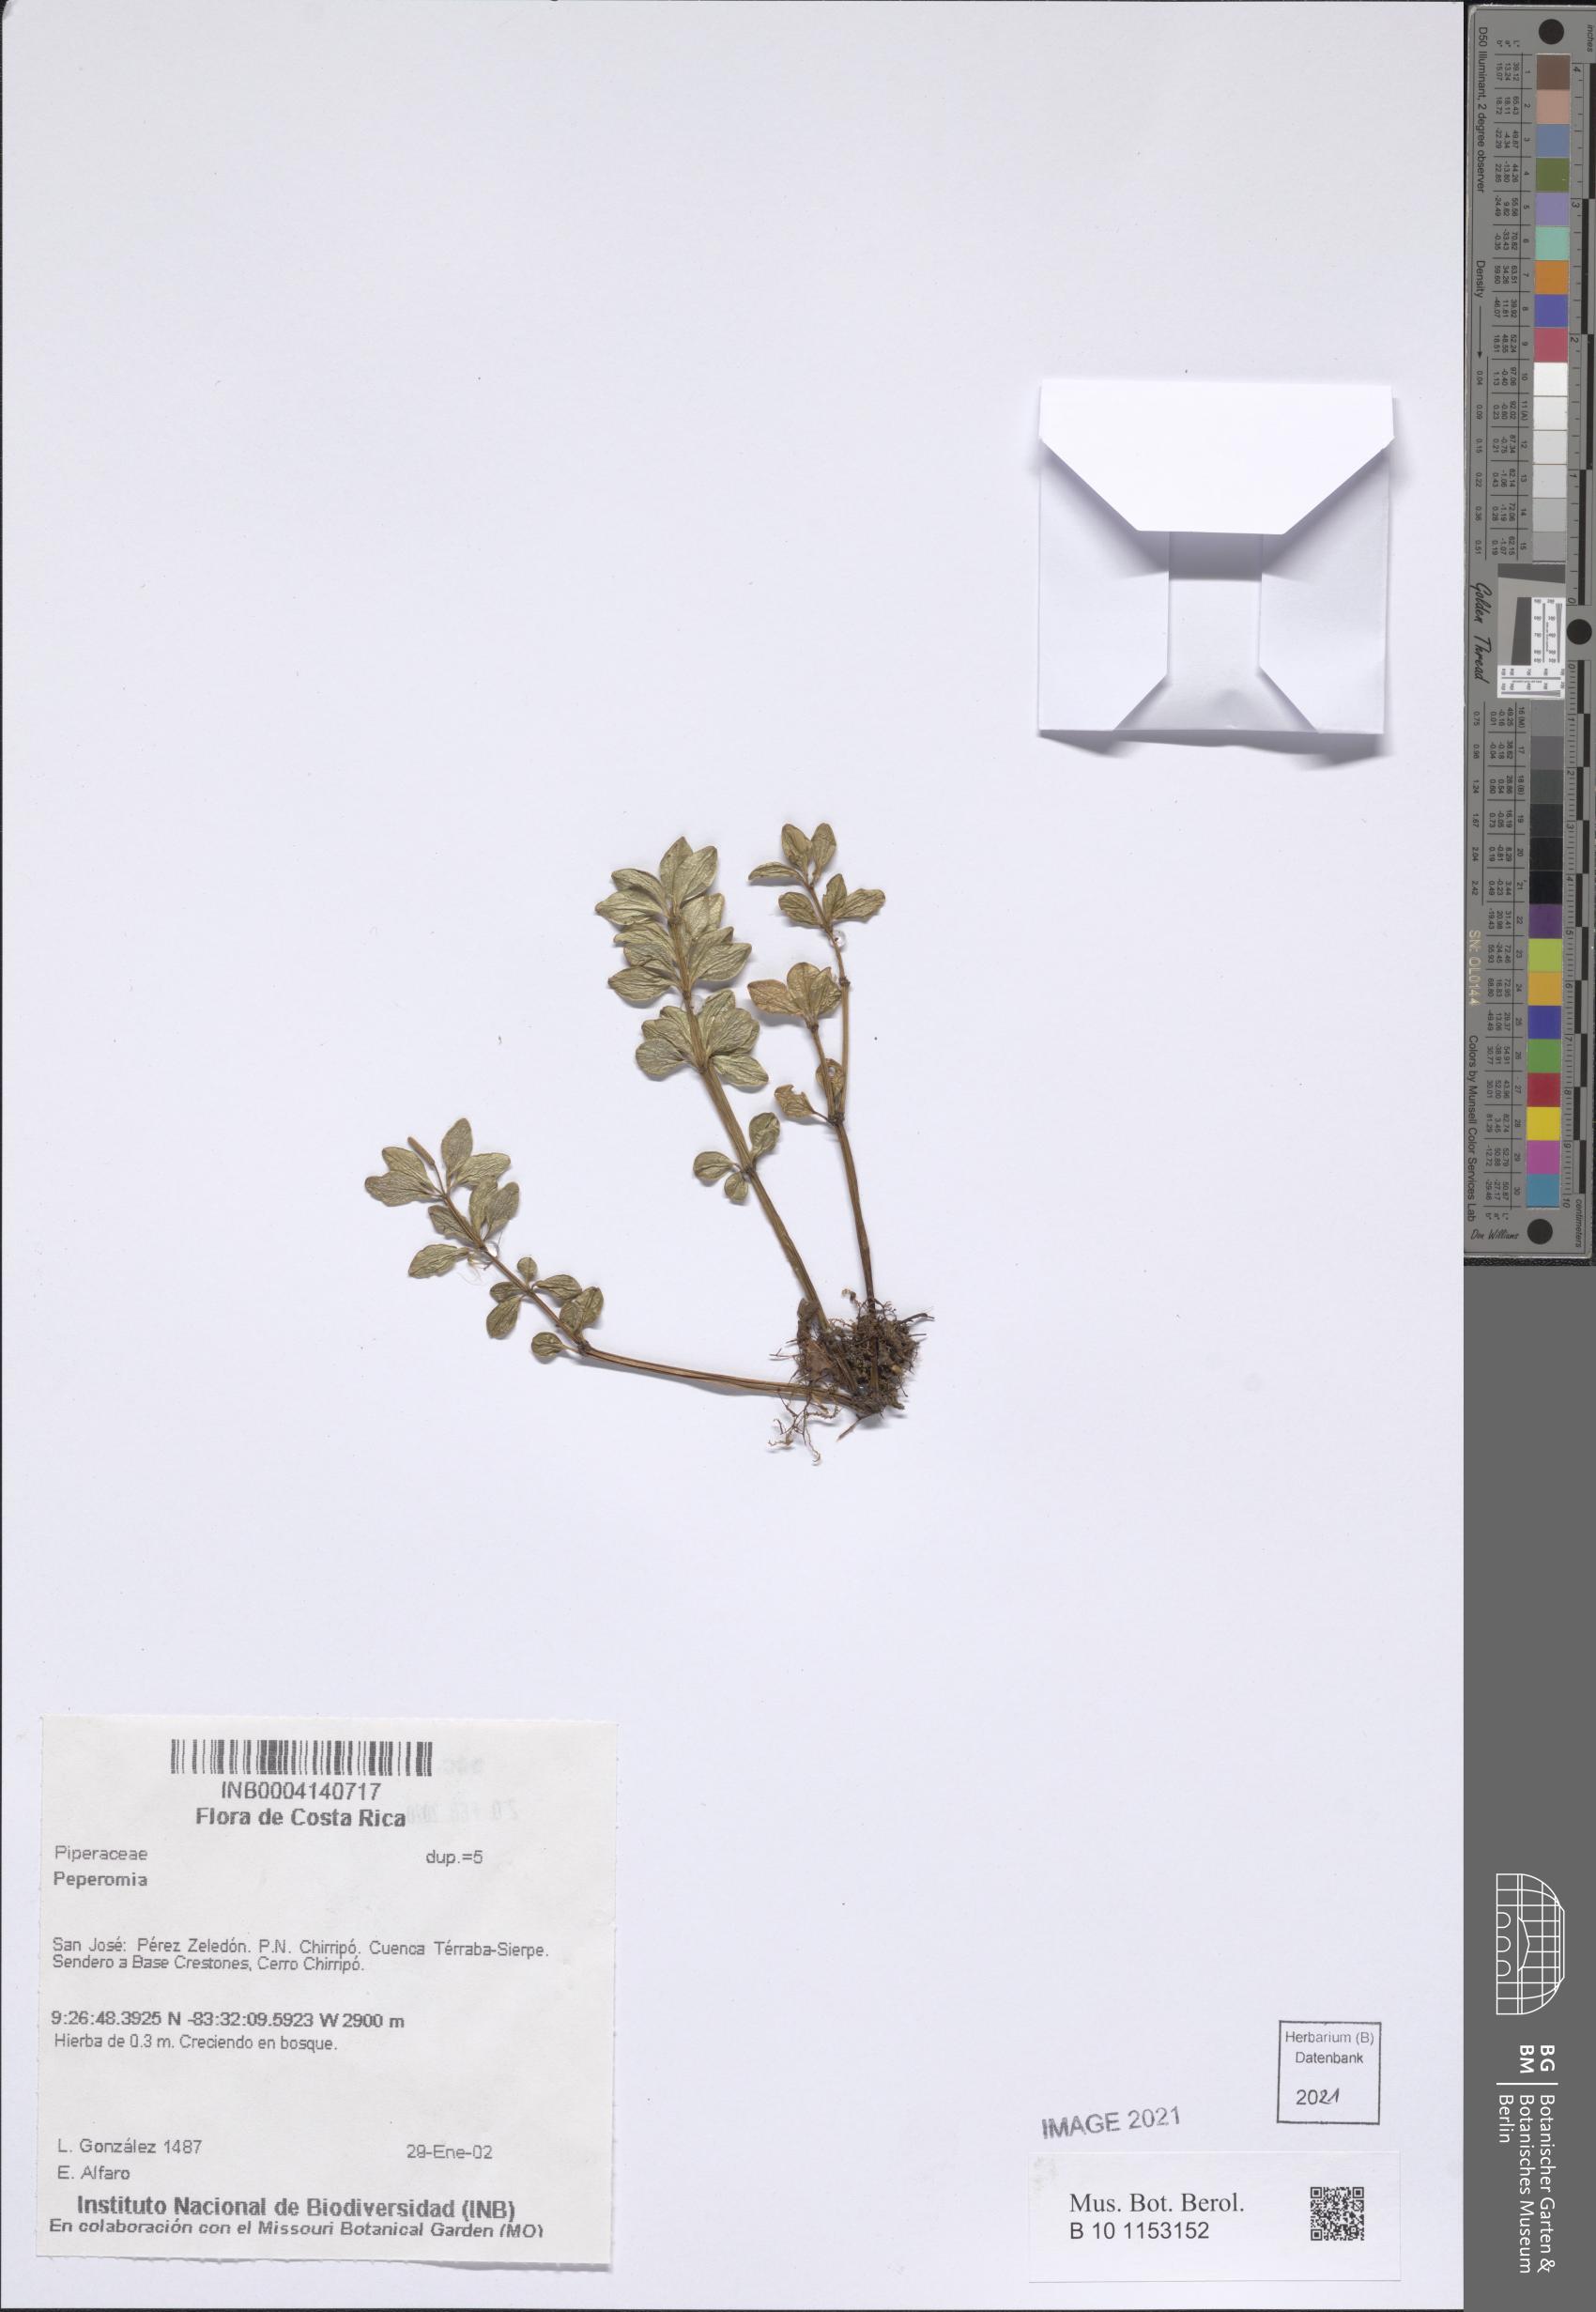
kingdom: Plantae
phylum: Tracheophyta
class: Magnoliopsida
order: Piperales
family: Piperaceae
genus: Peperomia
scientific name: Peperomia
